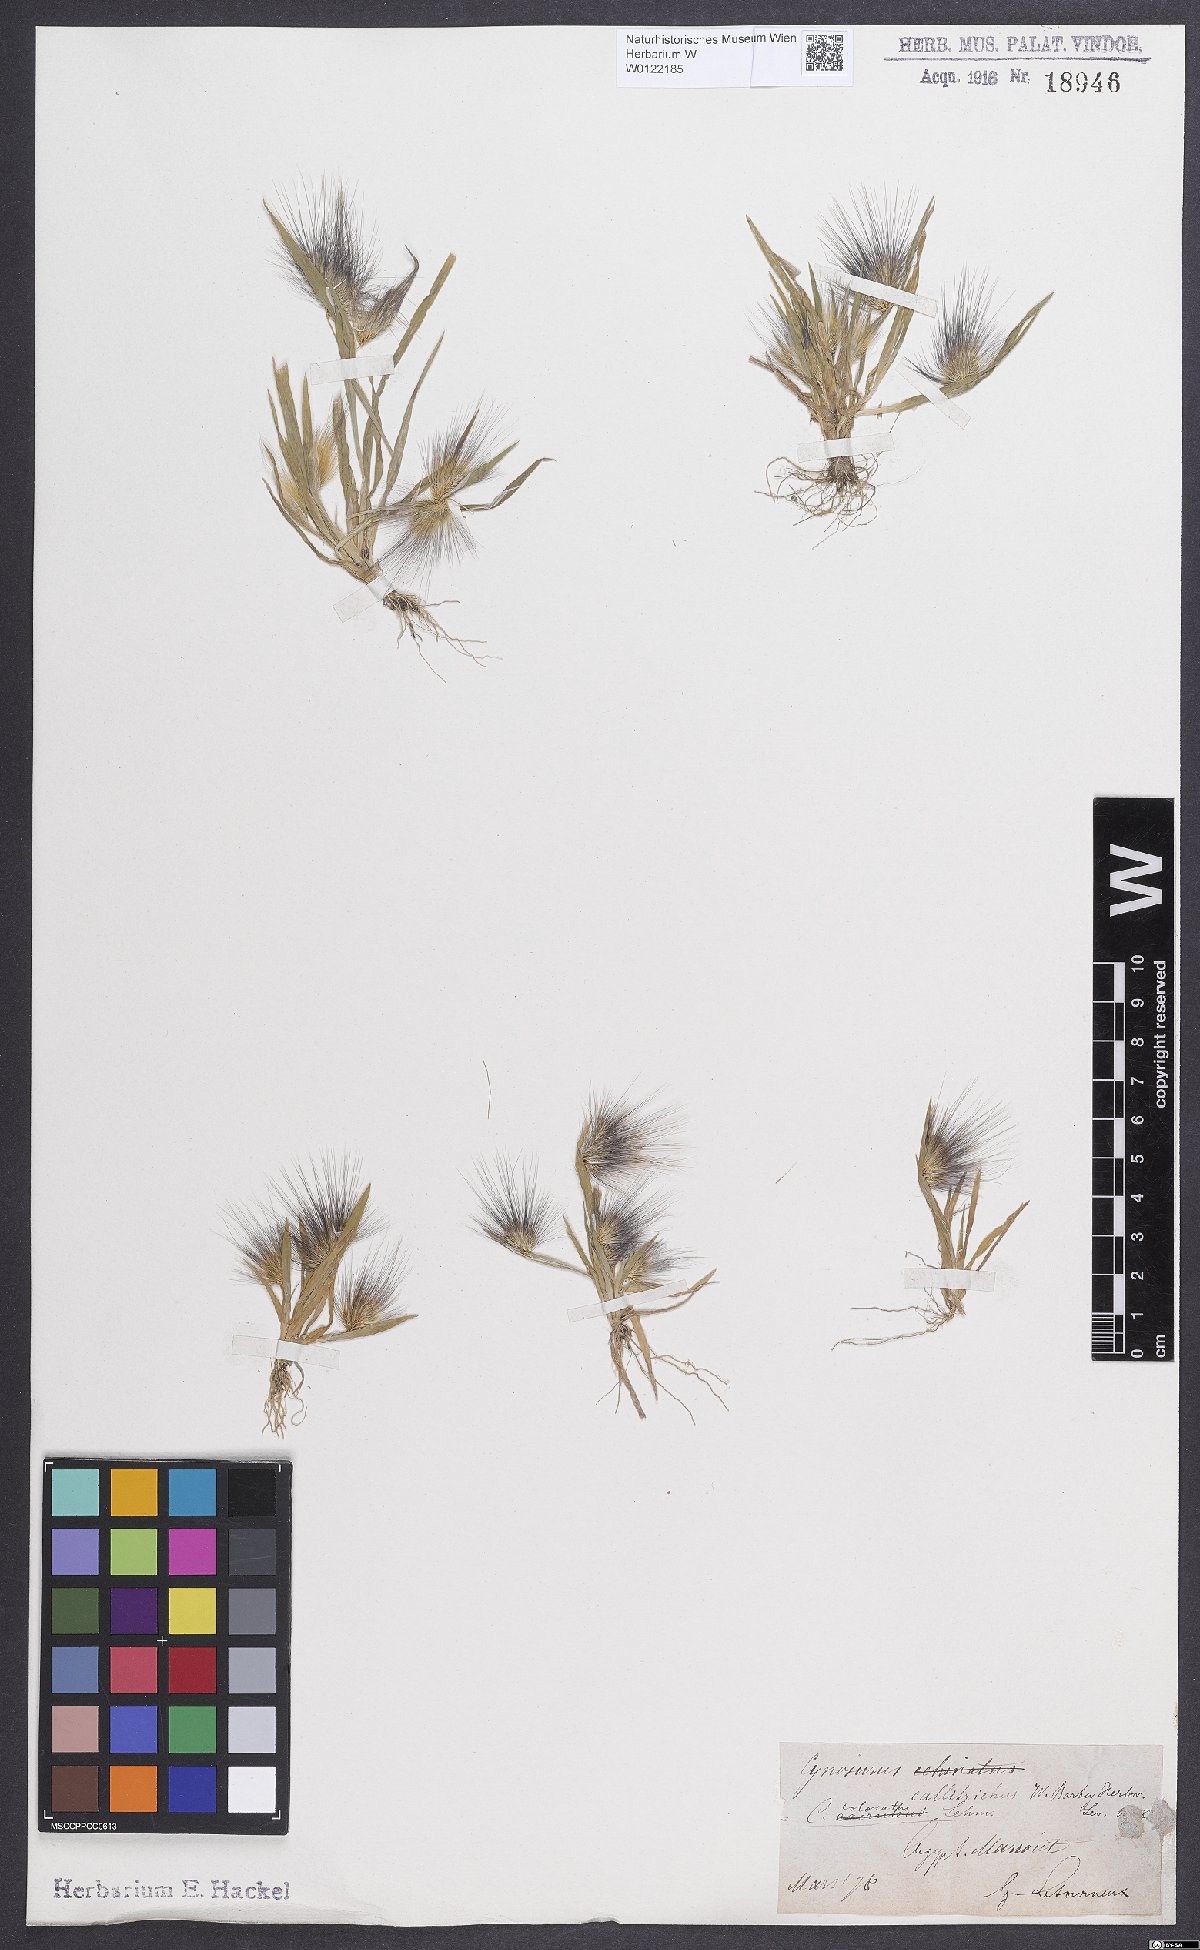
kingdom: Plantae
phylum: Tracheophyta
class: Liliopsida
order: Poales
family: Poaceae
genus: Cynosurus
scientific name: Cynosurus coloratus
